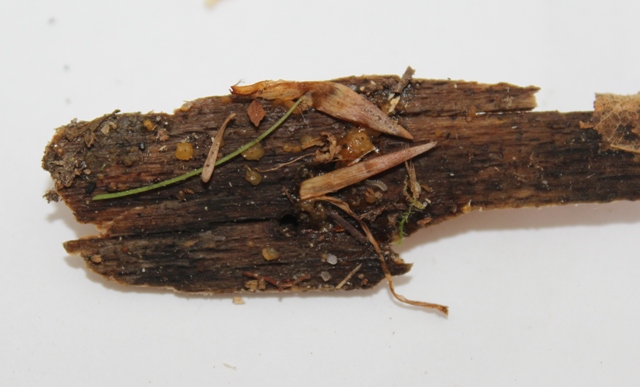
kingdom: Fungi
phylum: Basidiomycota
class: Dacrymycetes
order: Dacrymycetales
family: Dacrymycetaceae
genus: Dacrymyces
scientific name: Dacrymyces stillatus
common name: almindelig tåresvamp
